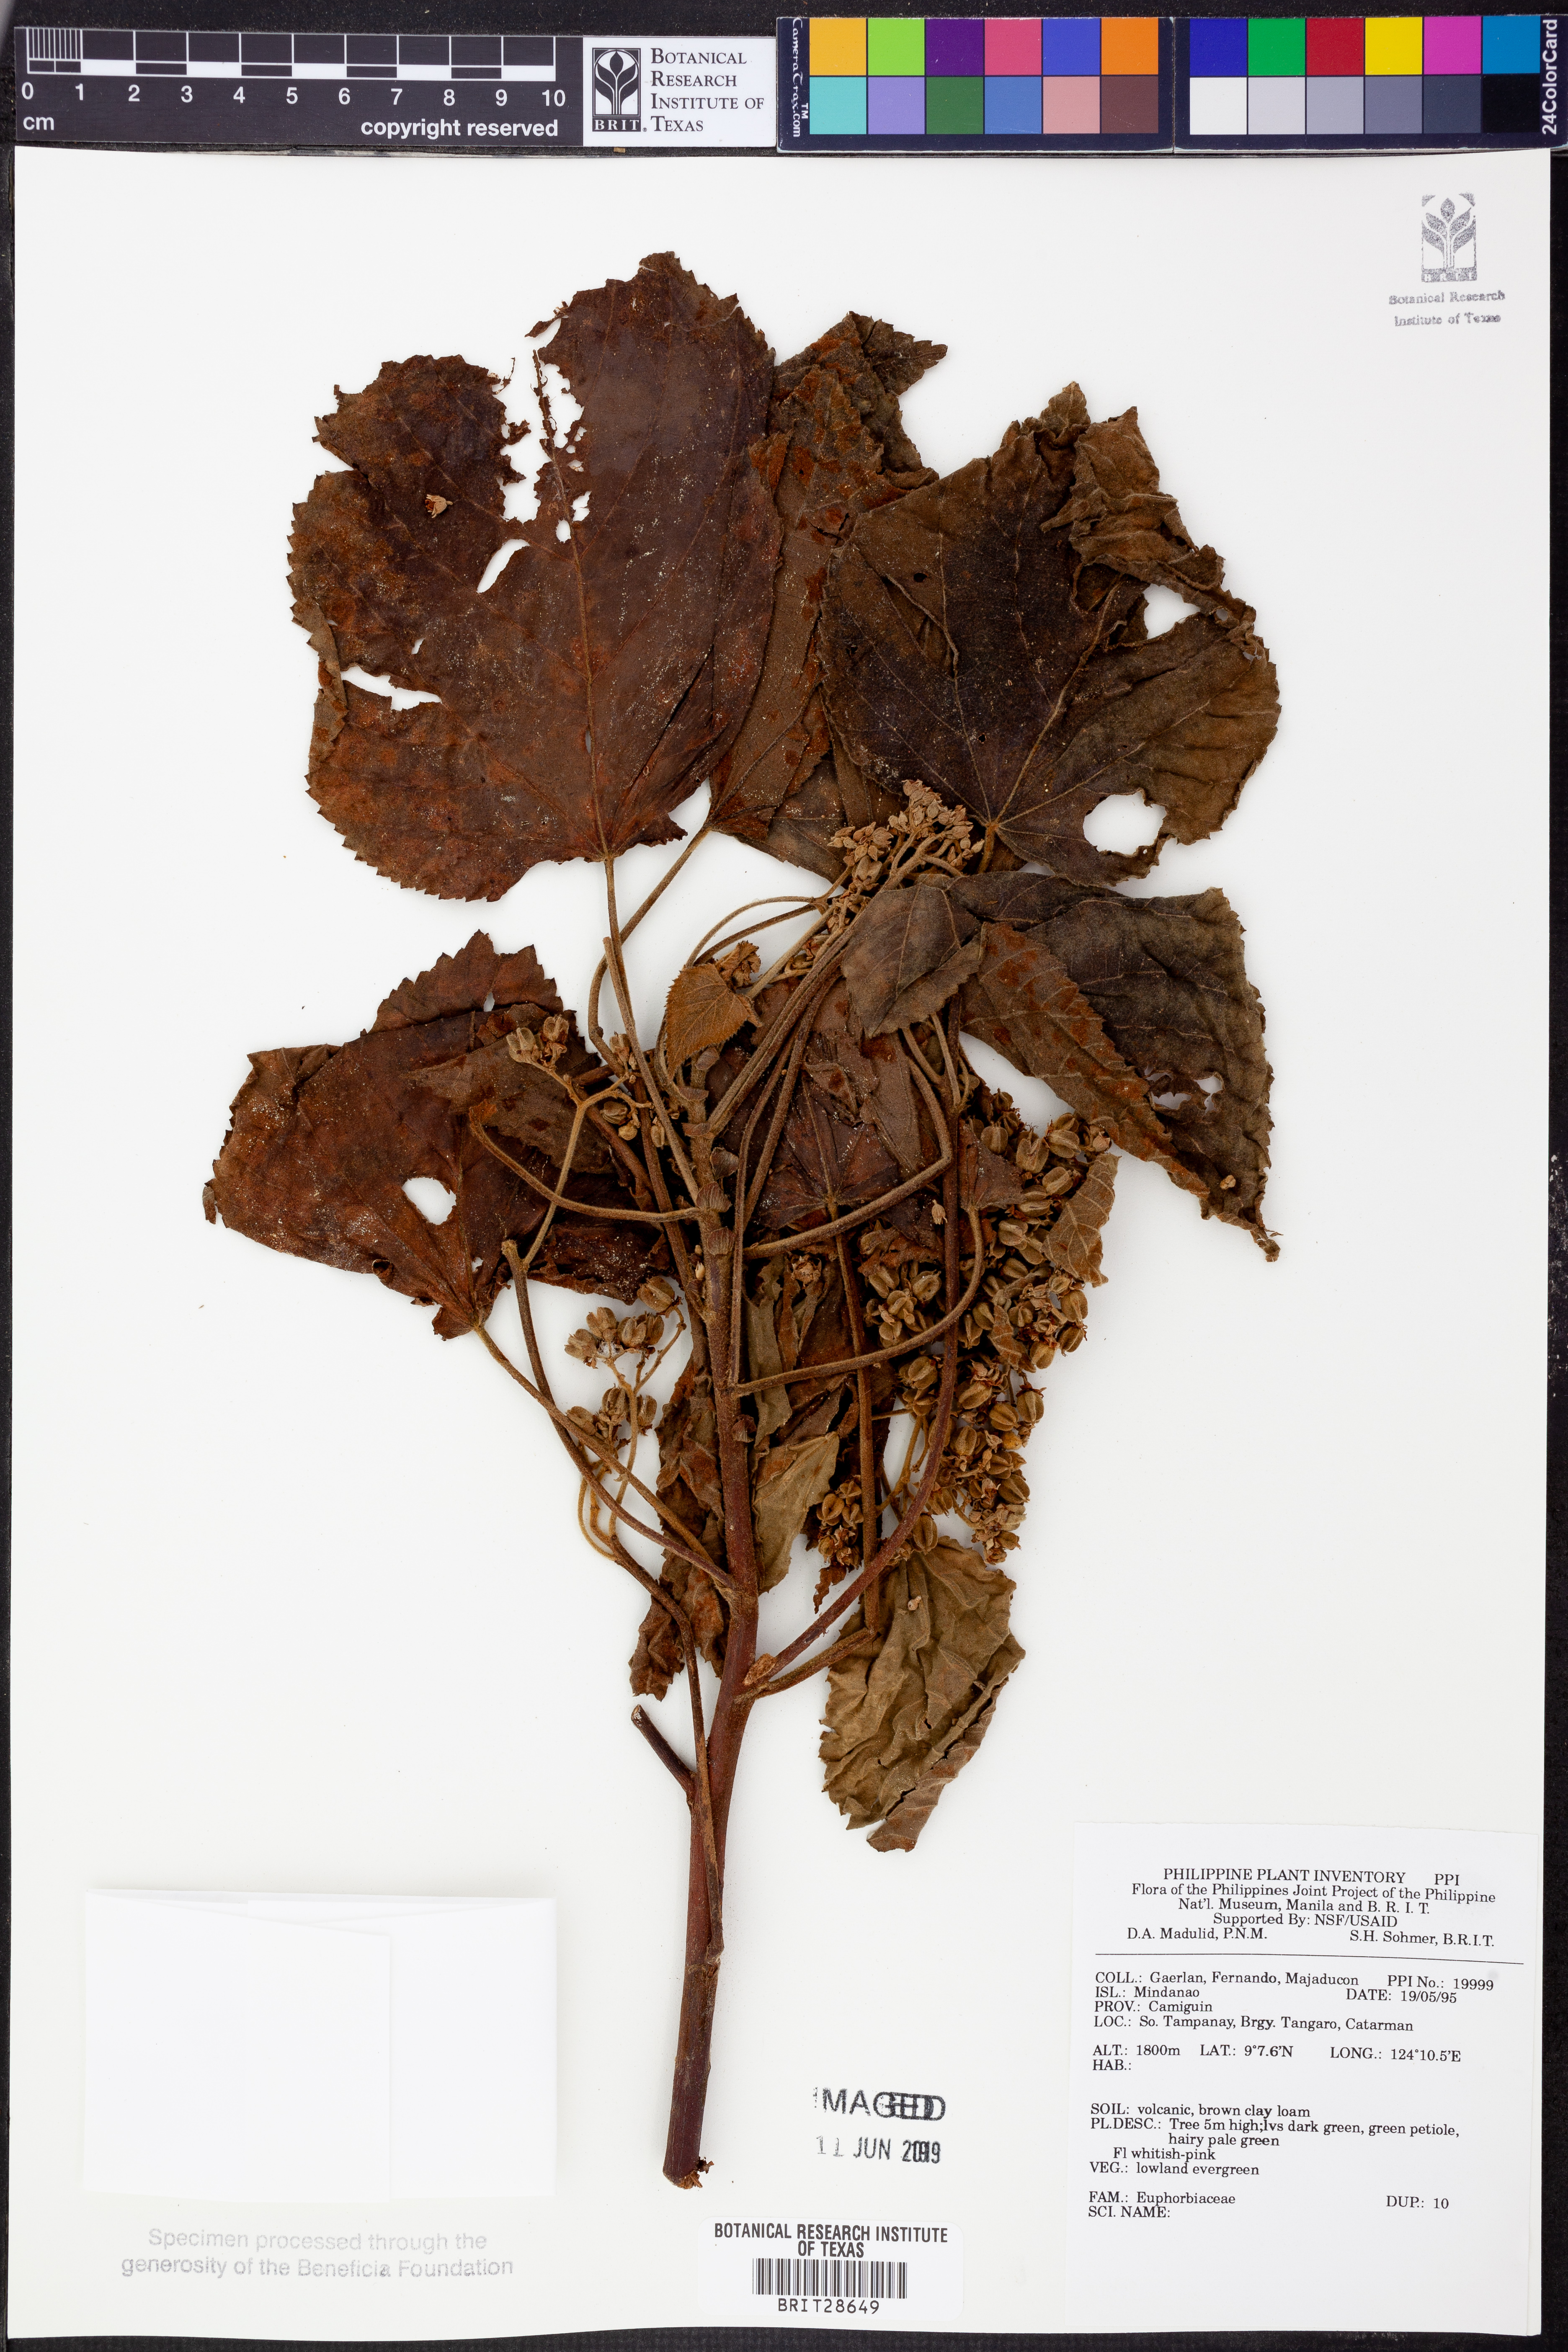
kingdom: Plantae
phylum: Tracheophyta
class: Magnoliopsida
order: Malpighiales
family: Euphorbiaceae
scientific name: Euphorbiaceae
